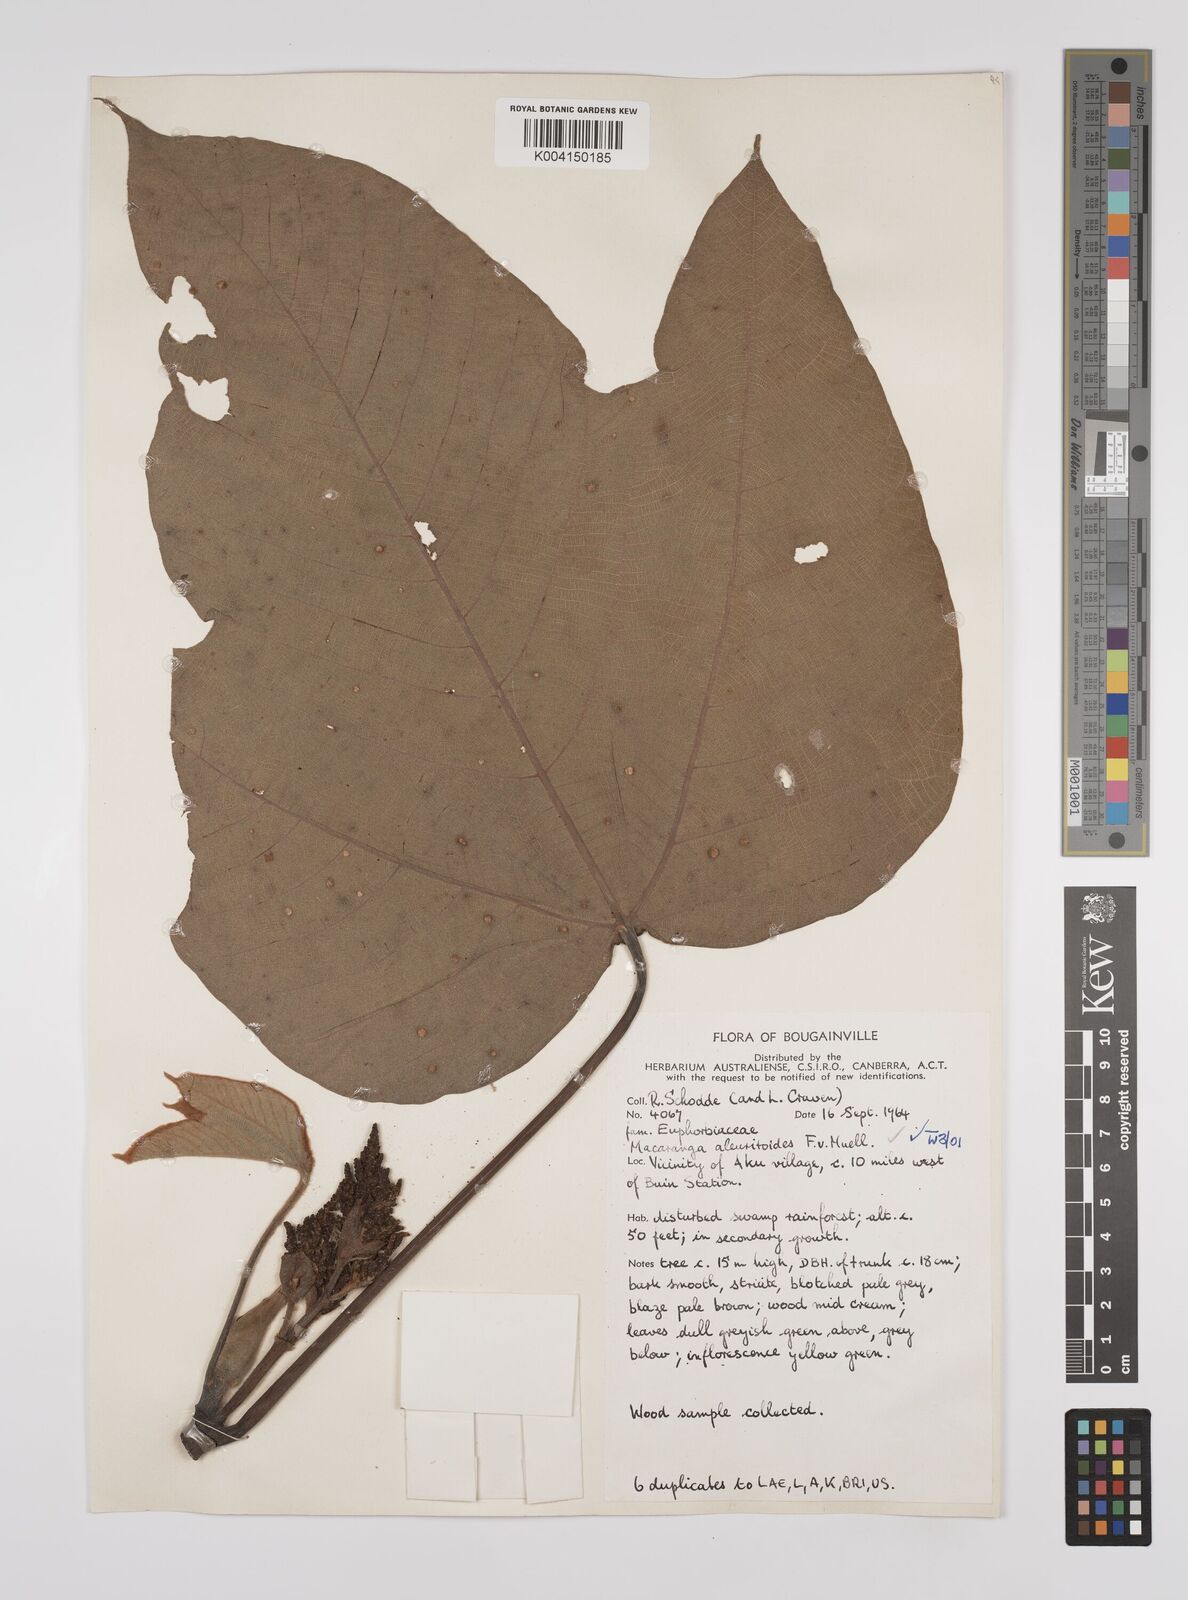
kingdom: Plantae
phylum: Tracheophyta
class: Magnoliopsida
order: Malpighiales
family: Euphorbiaceae
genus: Macaranga
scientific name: Macaranga aleuritoides
